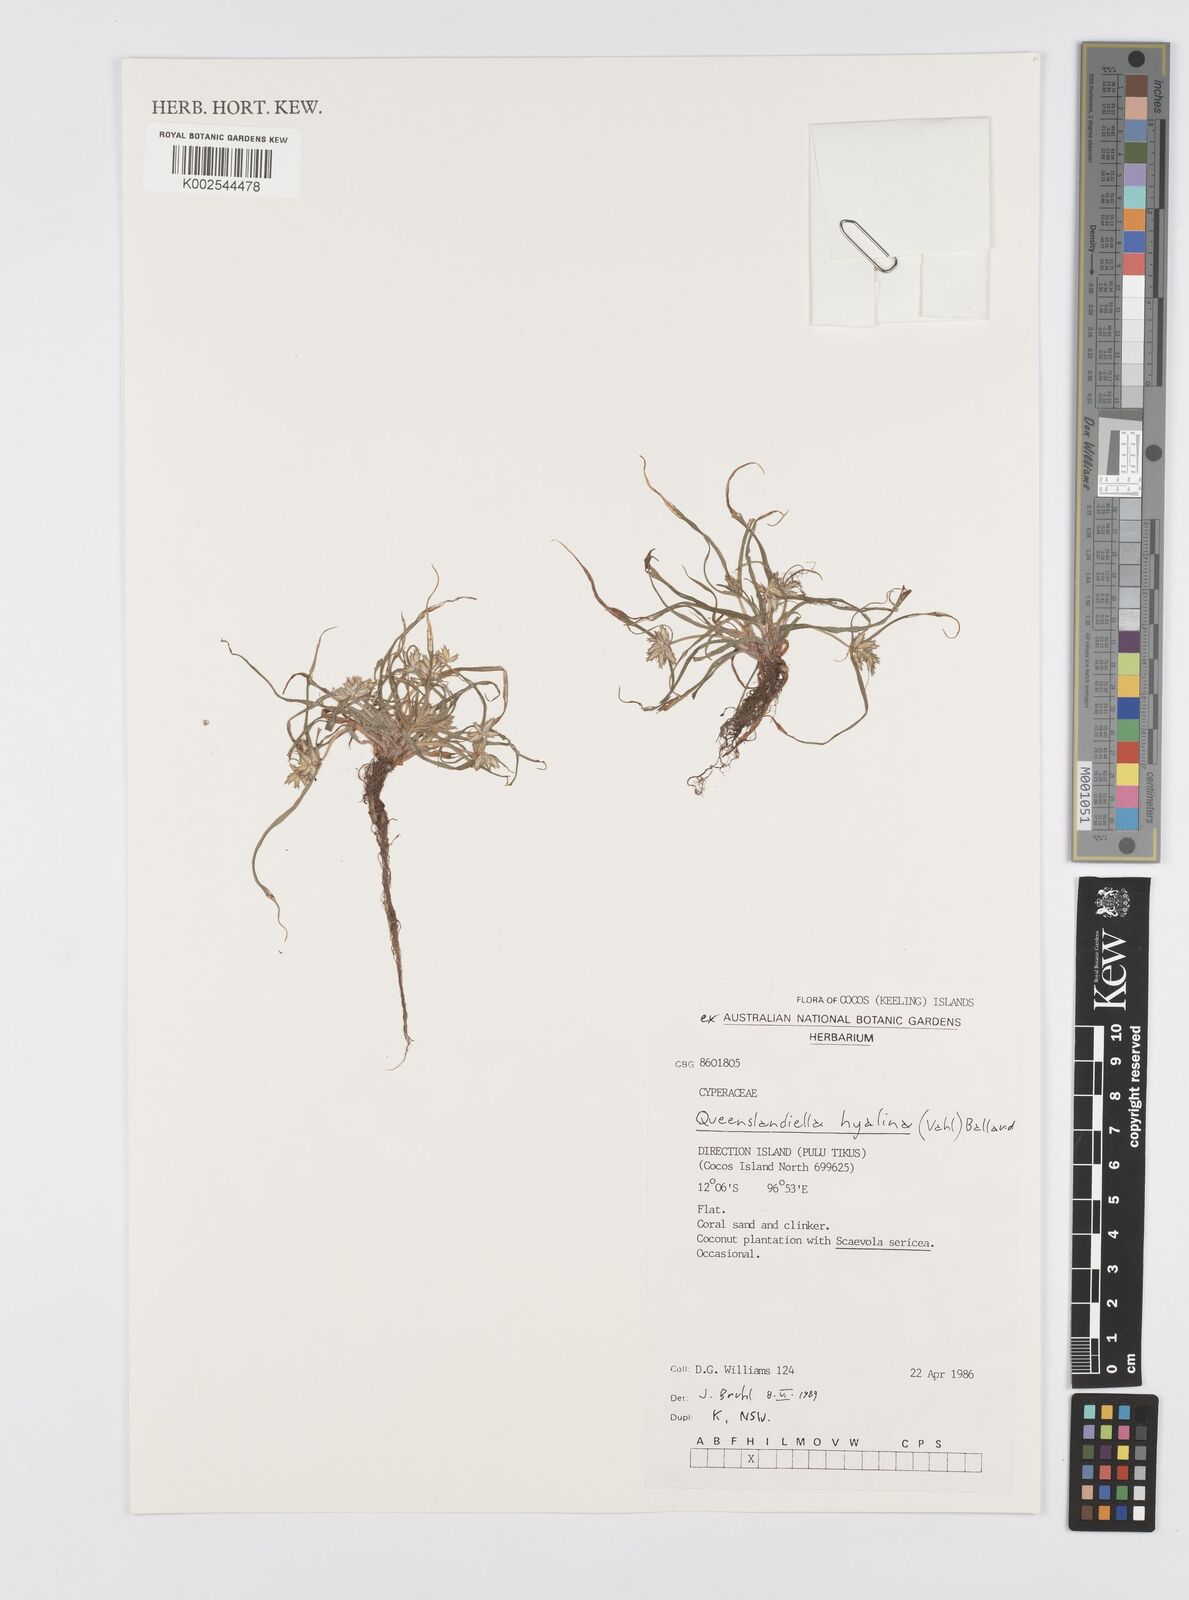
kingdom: Plantae
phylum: Tracheophyta
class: Liliopsida
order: Poales
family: Cyperaceae
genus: Cyperus
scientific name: Cyperus hyalinus
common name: Queensland sedge
